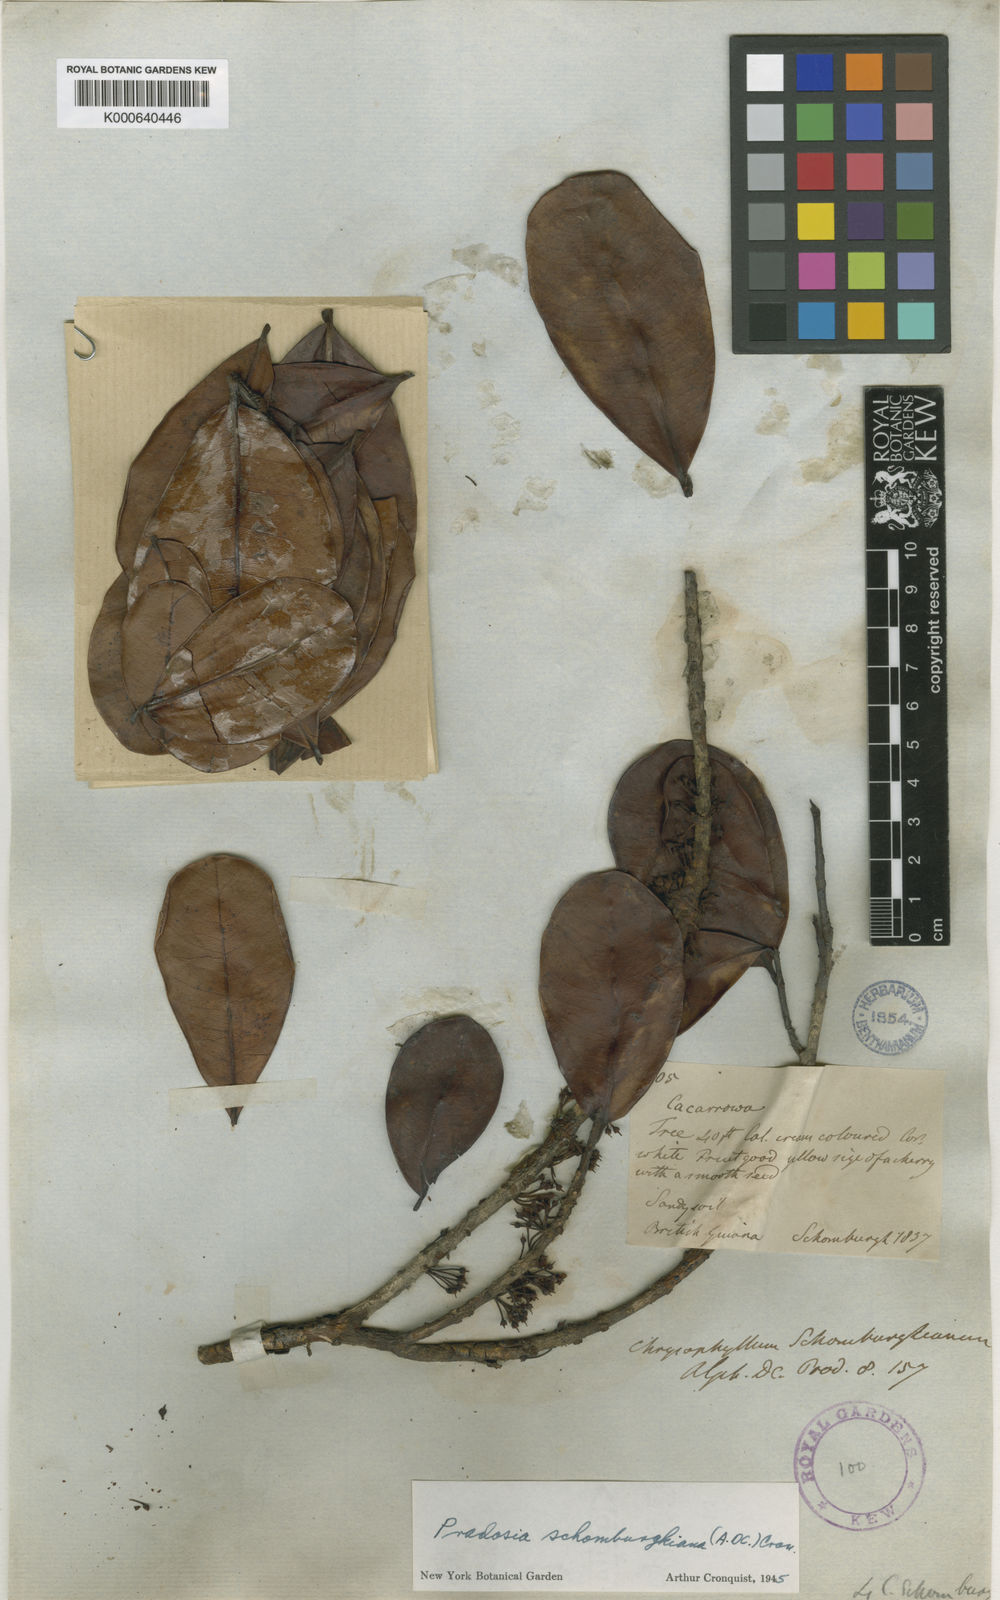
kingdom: Plantae
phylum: Tracheophyta
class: Magnoliopsida
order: Ericales
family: Sapotaceae
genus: Pradosia
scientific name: Pradosia schomburgkiana
